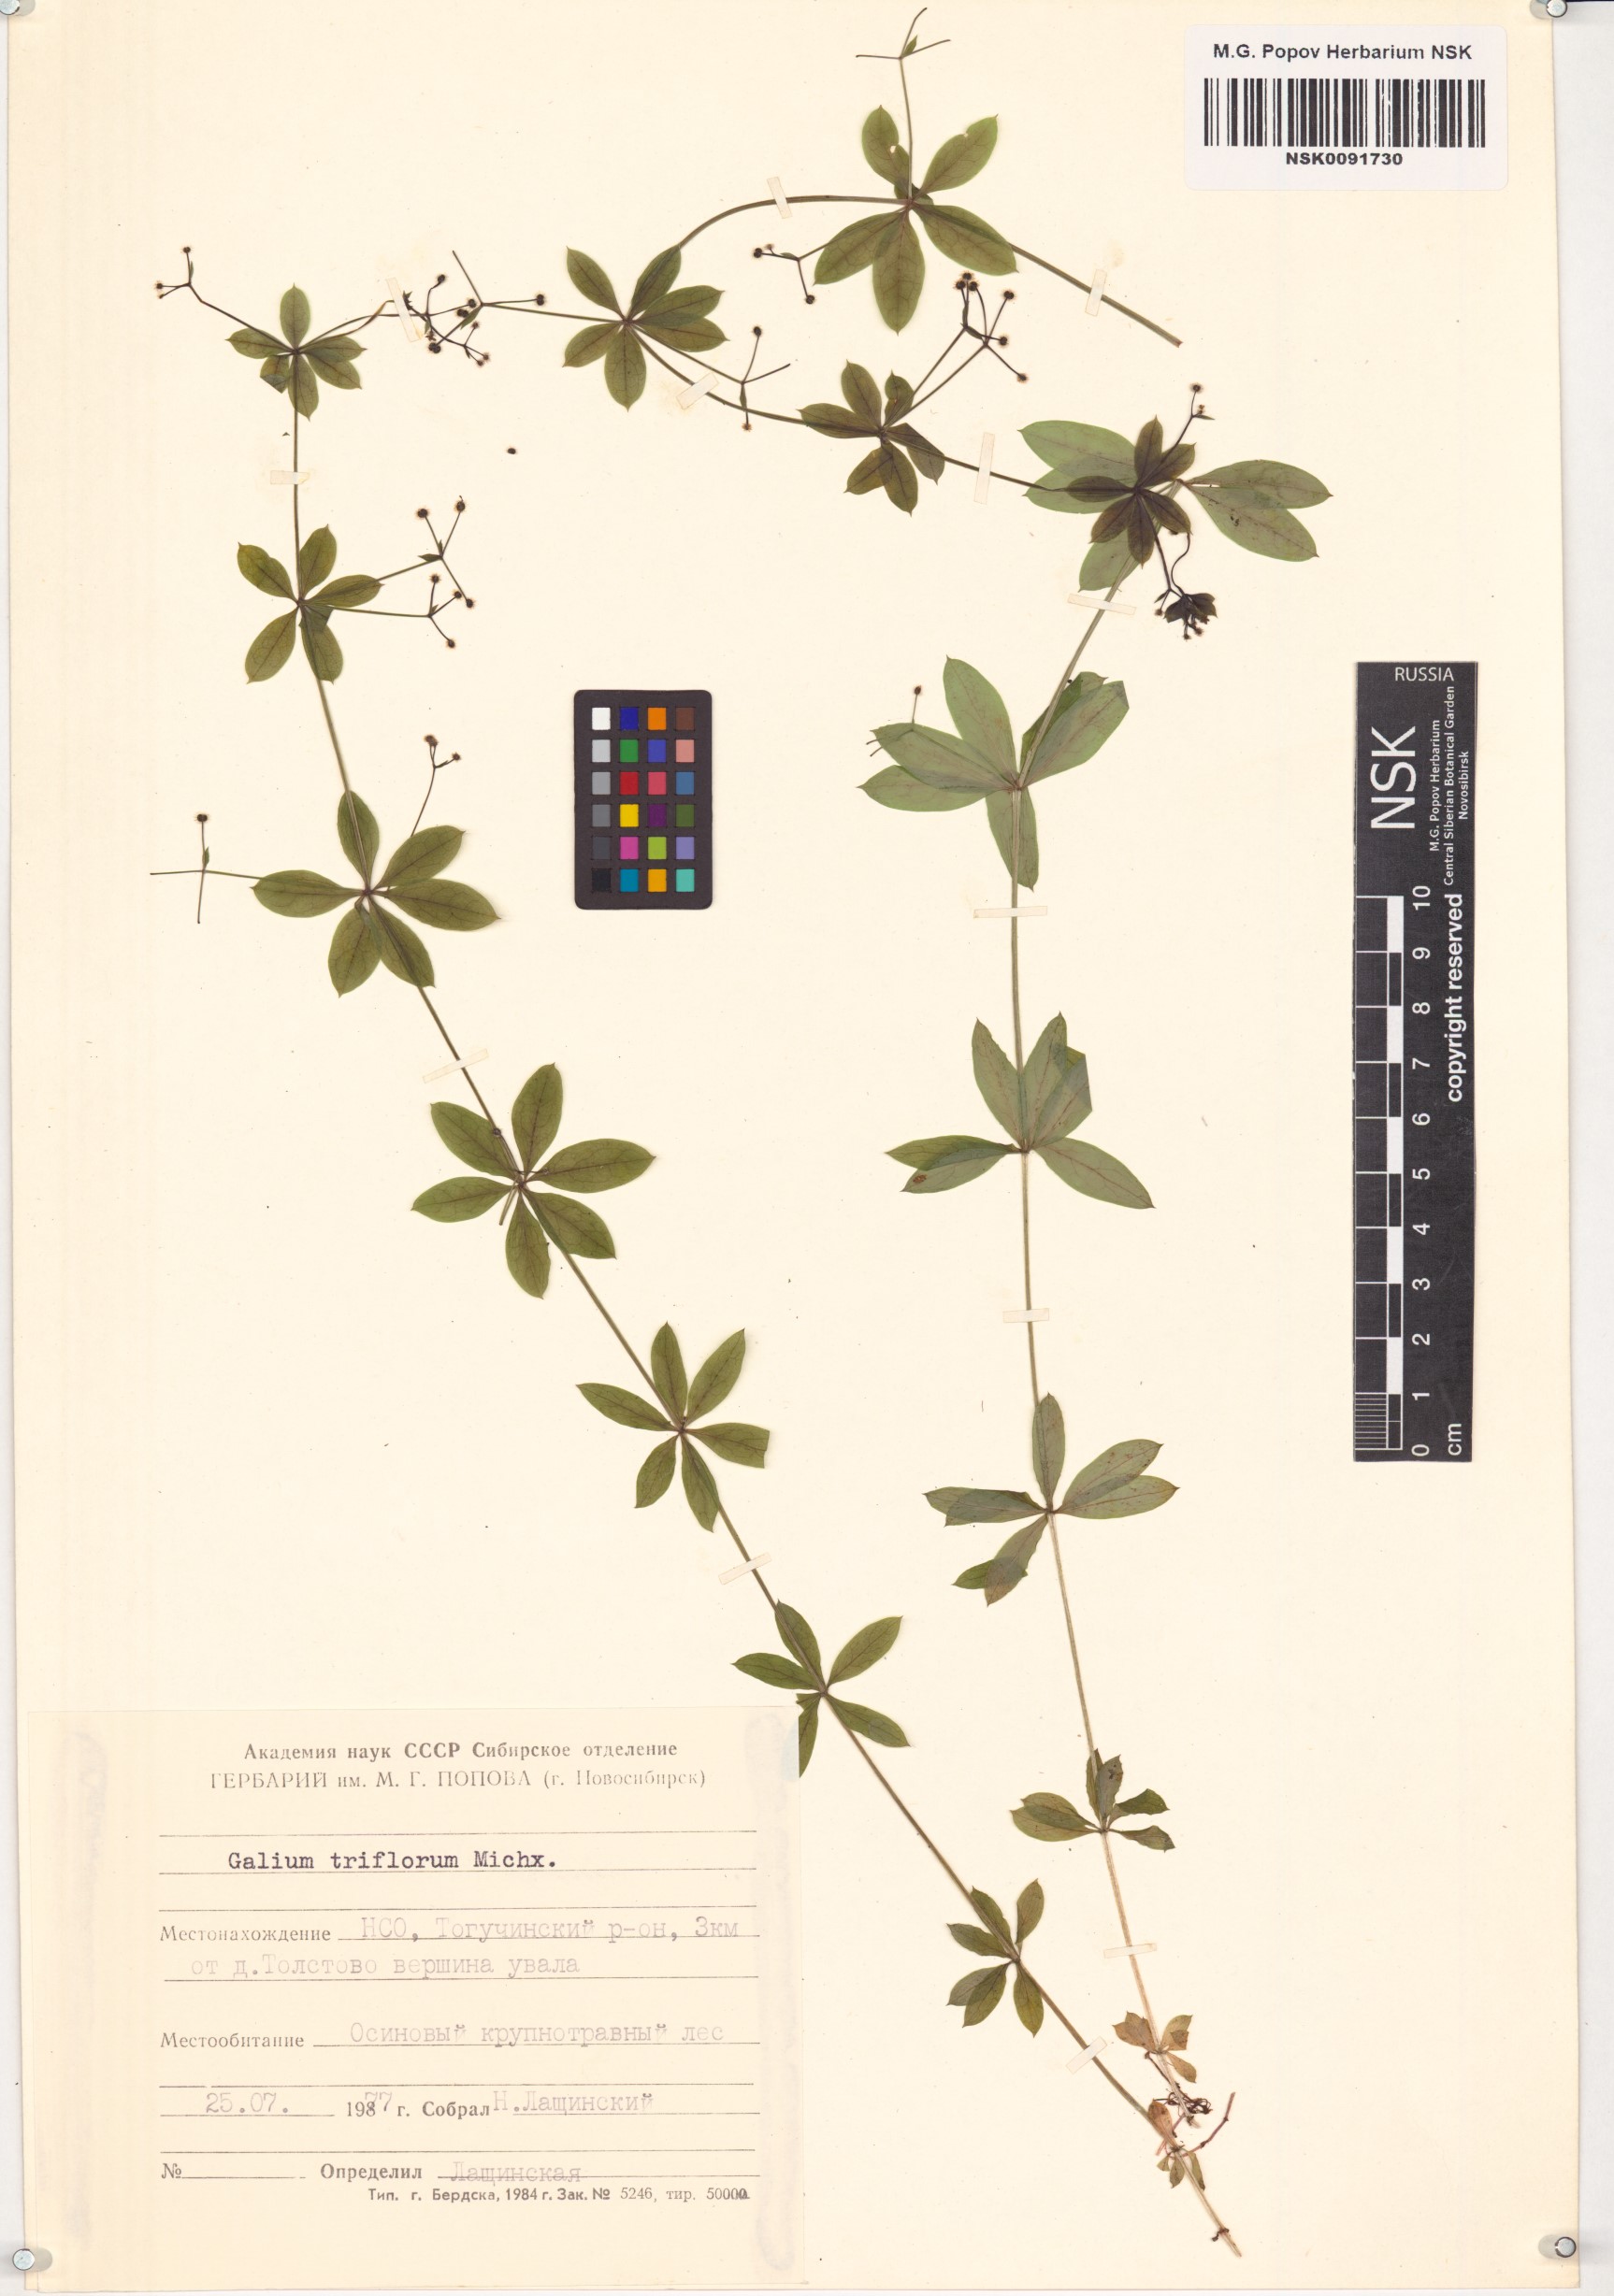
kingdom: Plantae
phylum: Tracheophyta
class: Magnoliopsida
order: Gentianales
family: Rubiaceae
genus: Galium
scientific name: Galium triflorum
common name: Fragrant bedstraw
